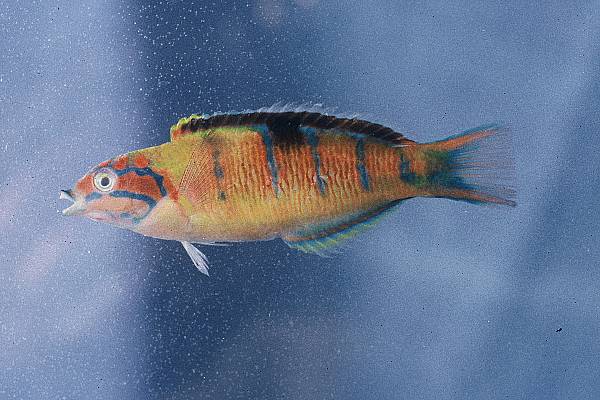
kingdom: Animalia
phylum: Chordata
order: Perciformes
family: Labridae
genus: Thalassoma
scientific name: Thalassoma pavo
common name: Ornate wrasse
